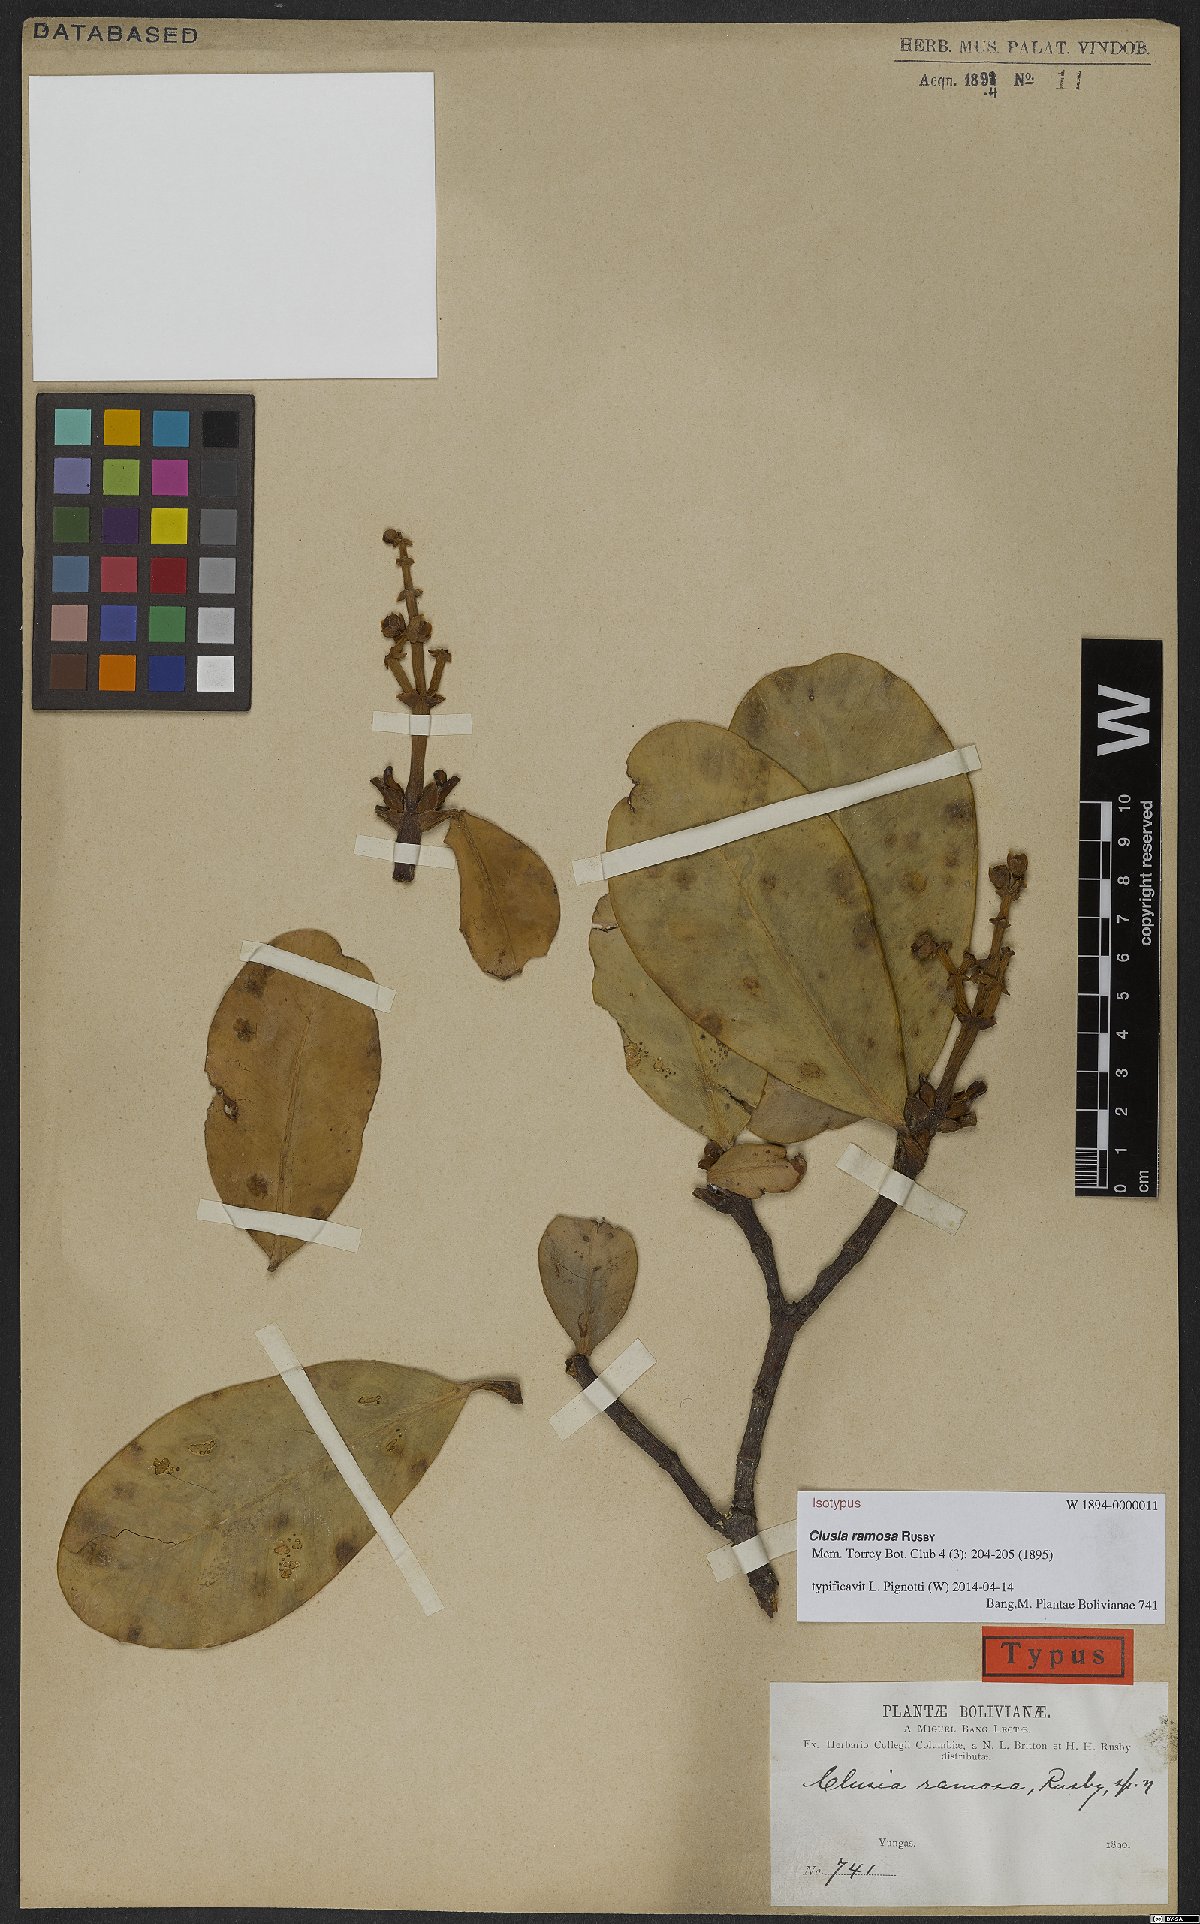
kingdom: Plantae
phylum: Tracheophyta
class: Magnoliopsida
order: Malpighiales
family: Clusiaceae
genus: Clusia
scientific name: Clusia ramosa
